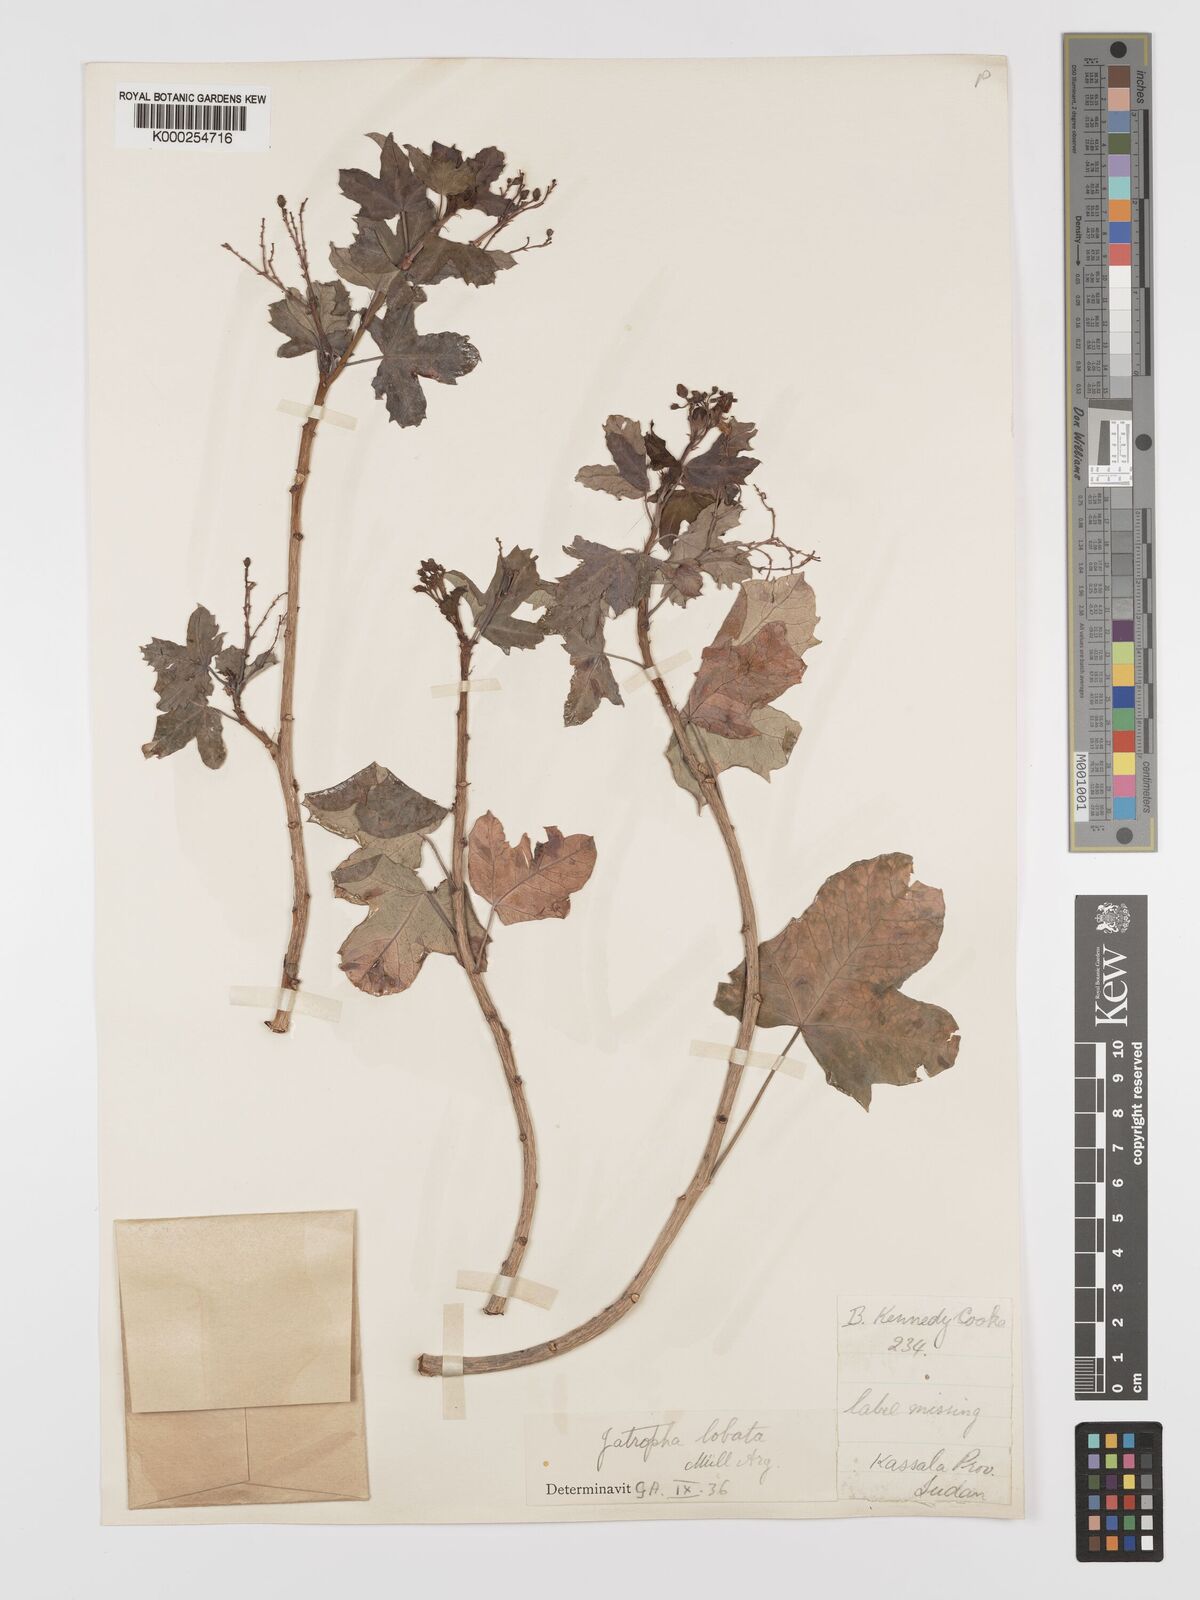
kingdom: Plantae
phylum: Tracheophyta
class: Magnoliopsida
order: Malpighiales
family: Euphorbiaceae
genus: Jatropha
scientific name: Jatropha glauca
